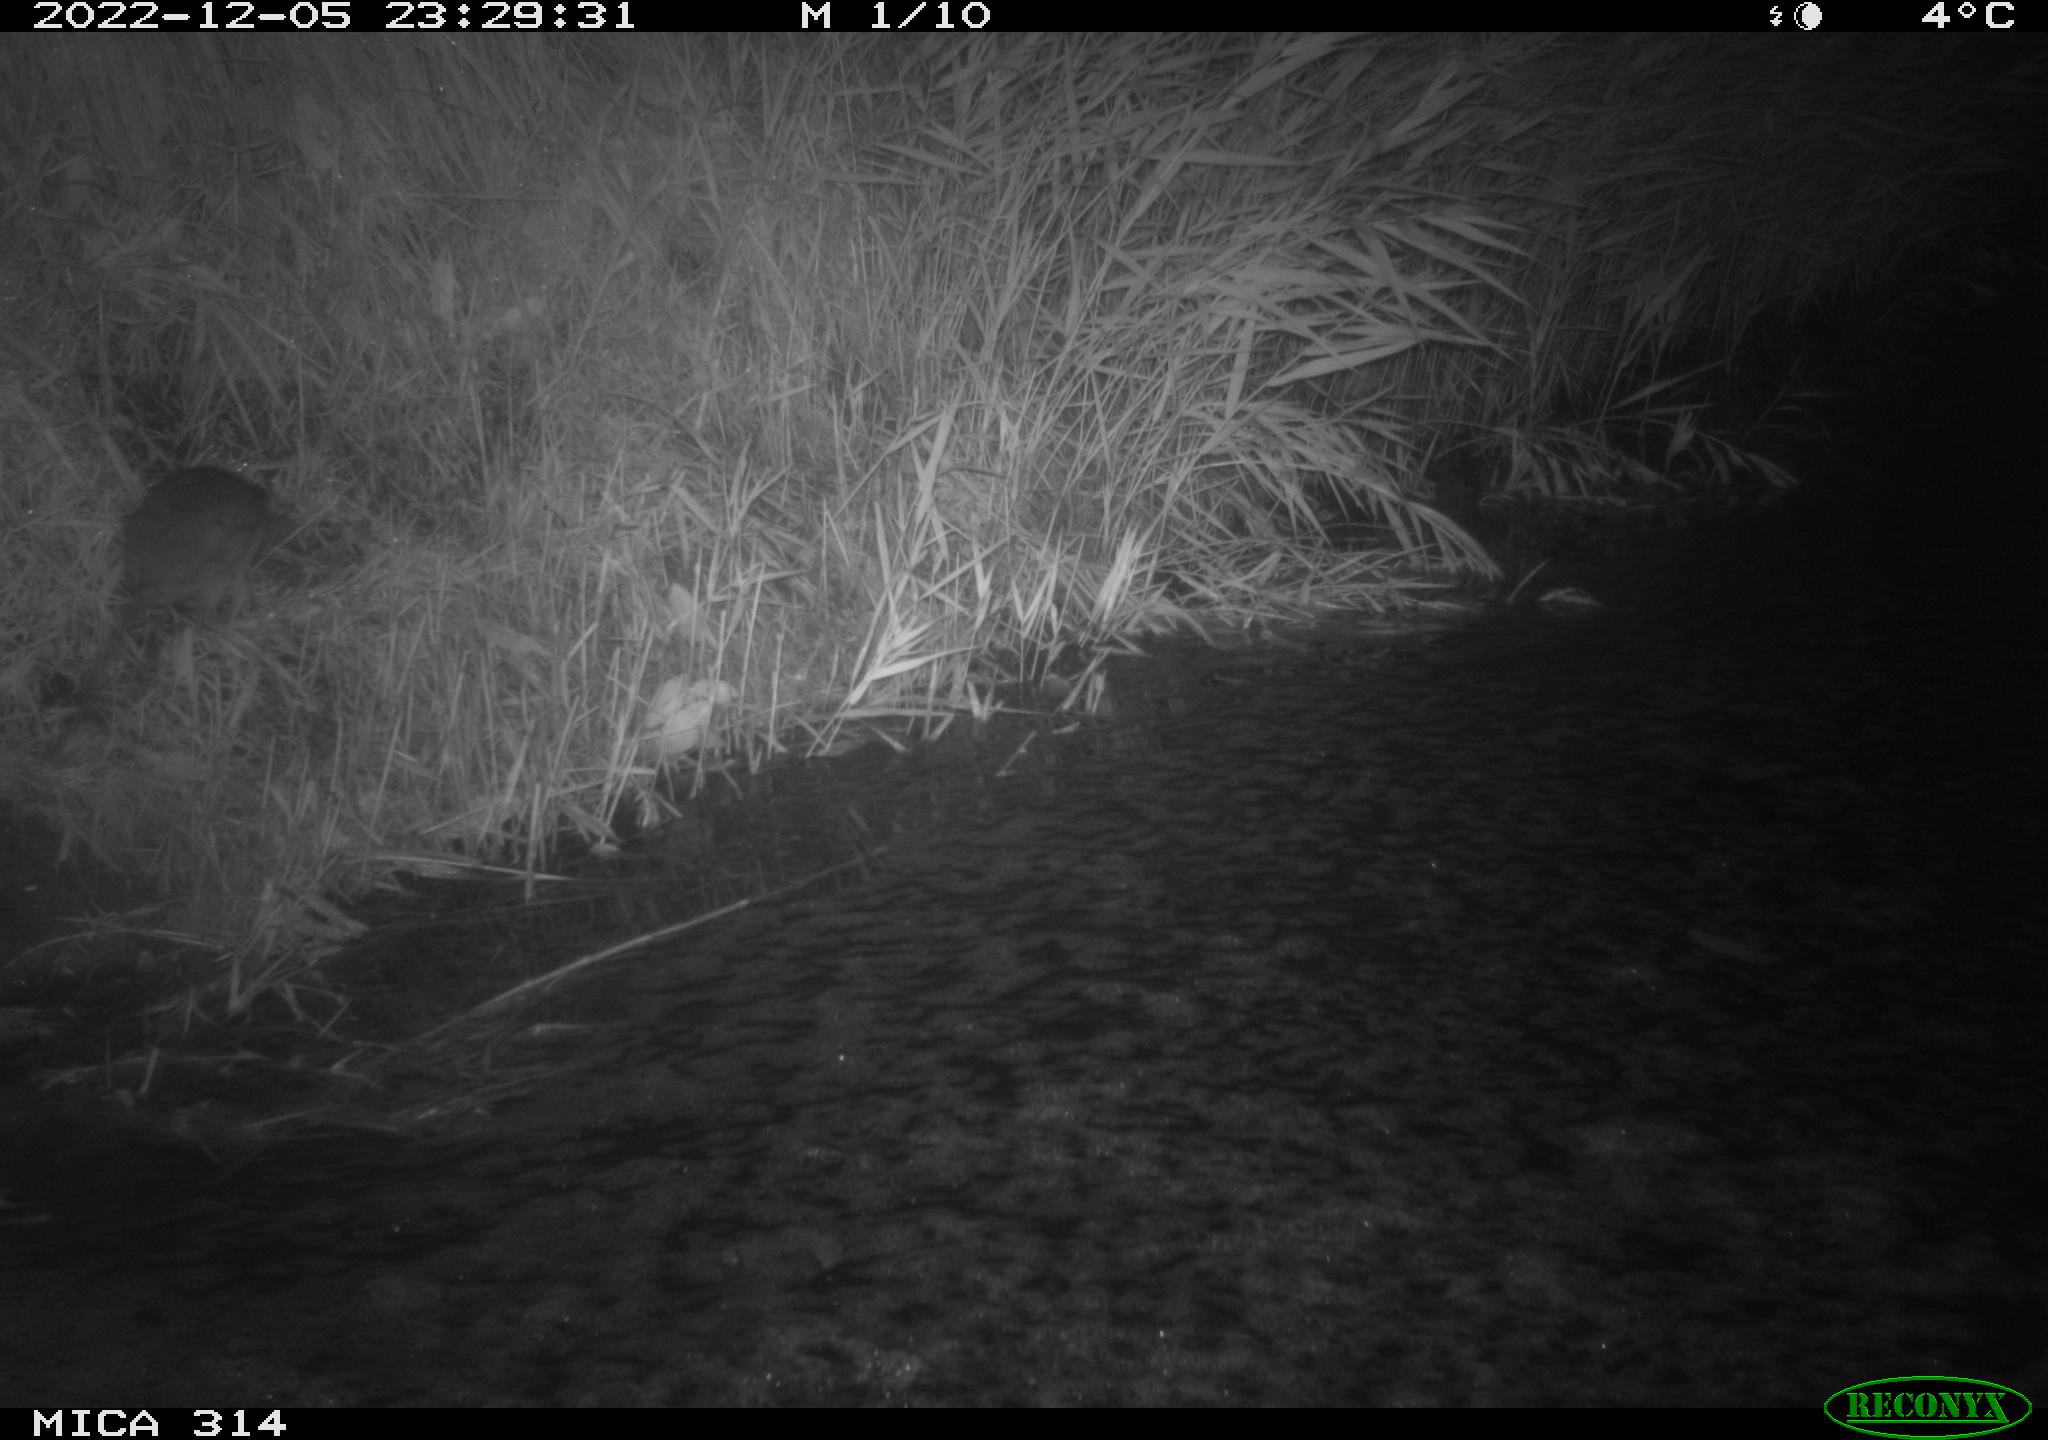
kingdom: Animalia
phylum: Chordata
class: Mammalia
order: Rodentia
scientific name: Rodentia
